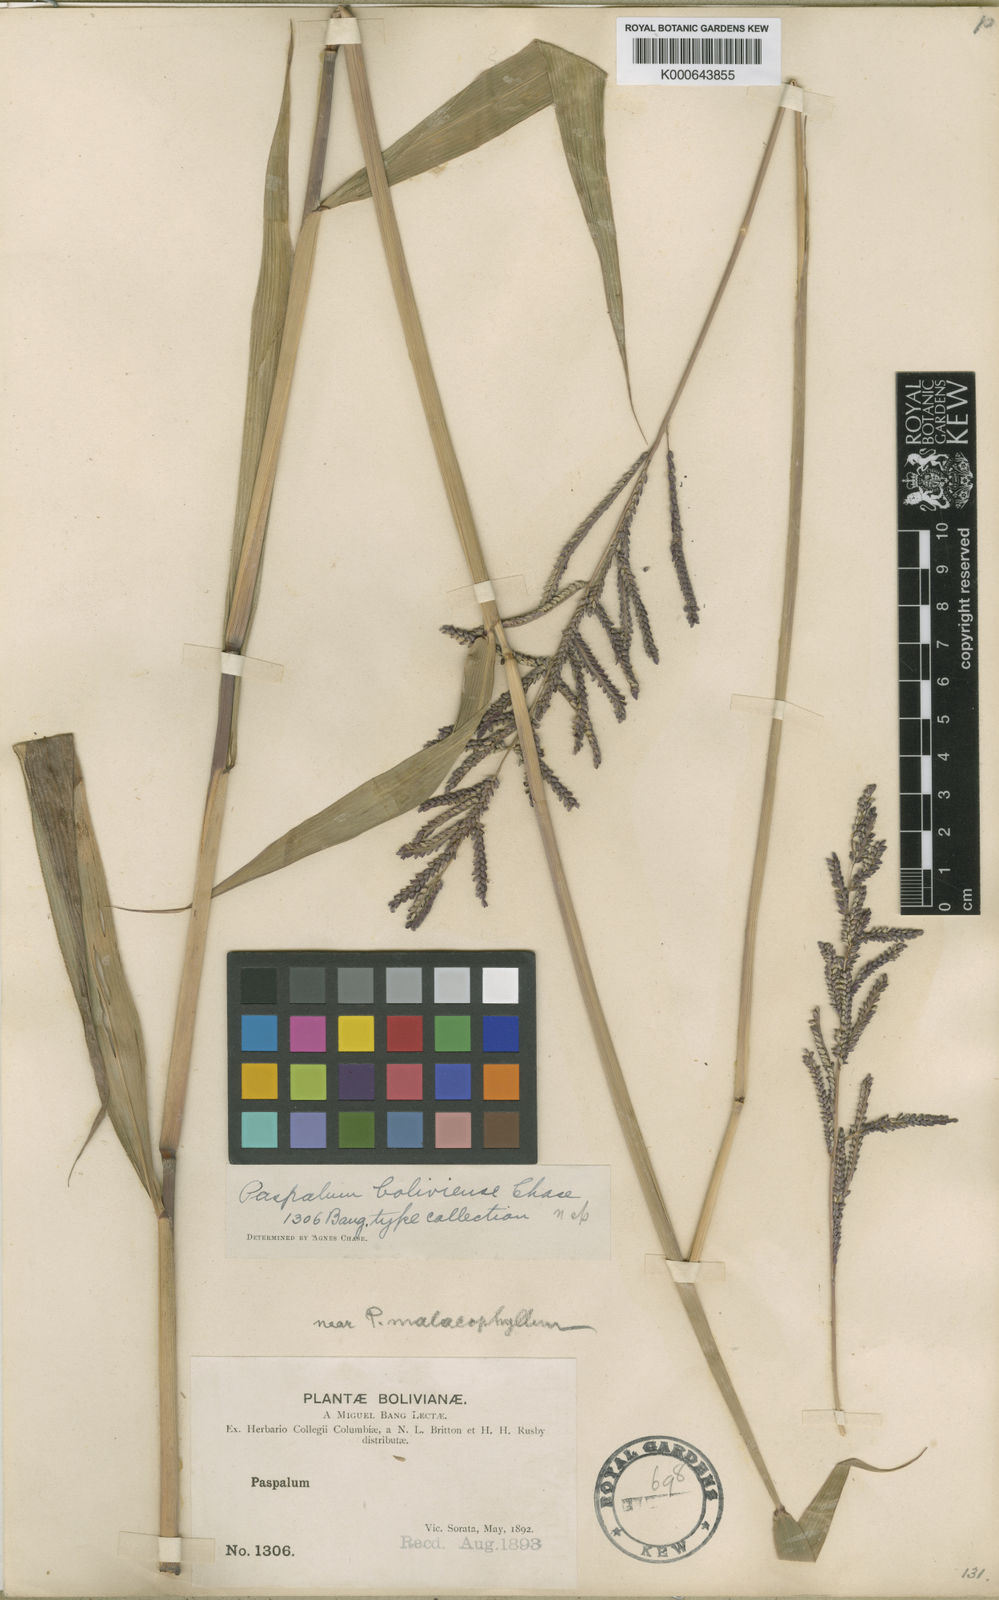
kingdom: Plantae
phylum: Tracheophyta
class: Liliopsida
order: Poales
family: Poaceae
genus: Paspalum
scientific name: Paspalum malacophyllum
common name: Ribbed paspalum
